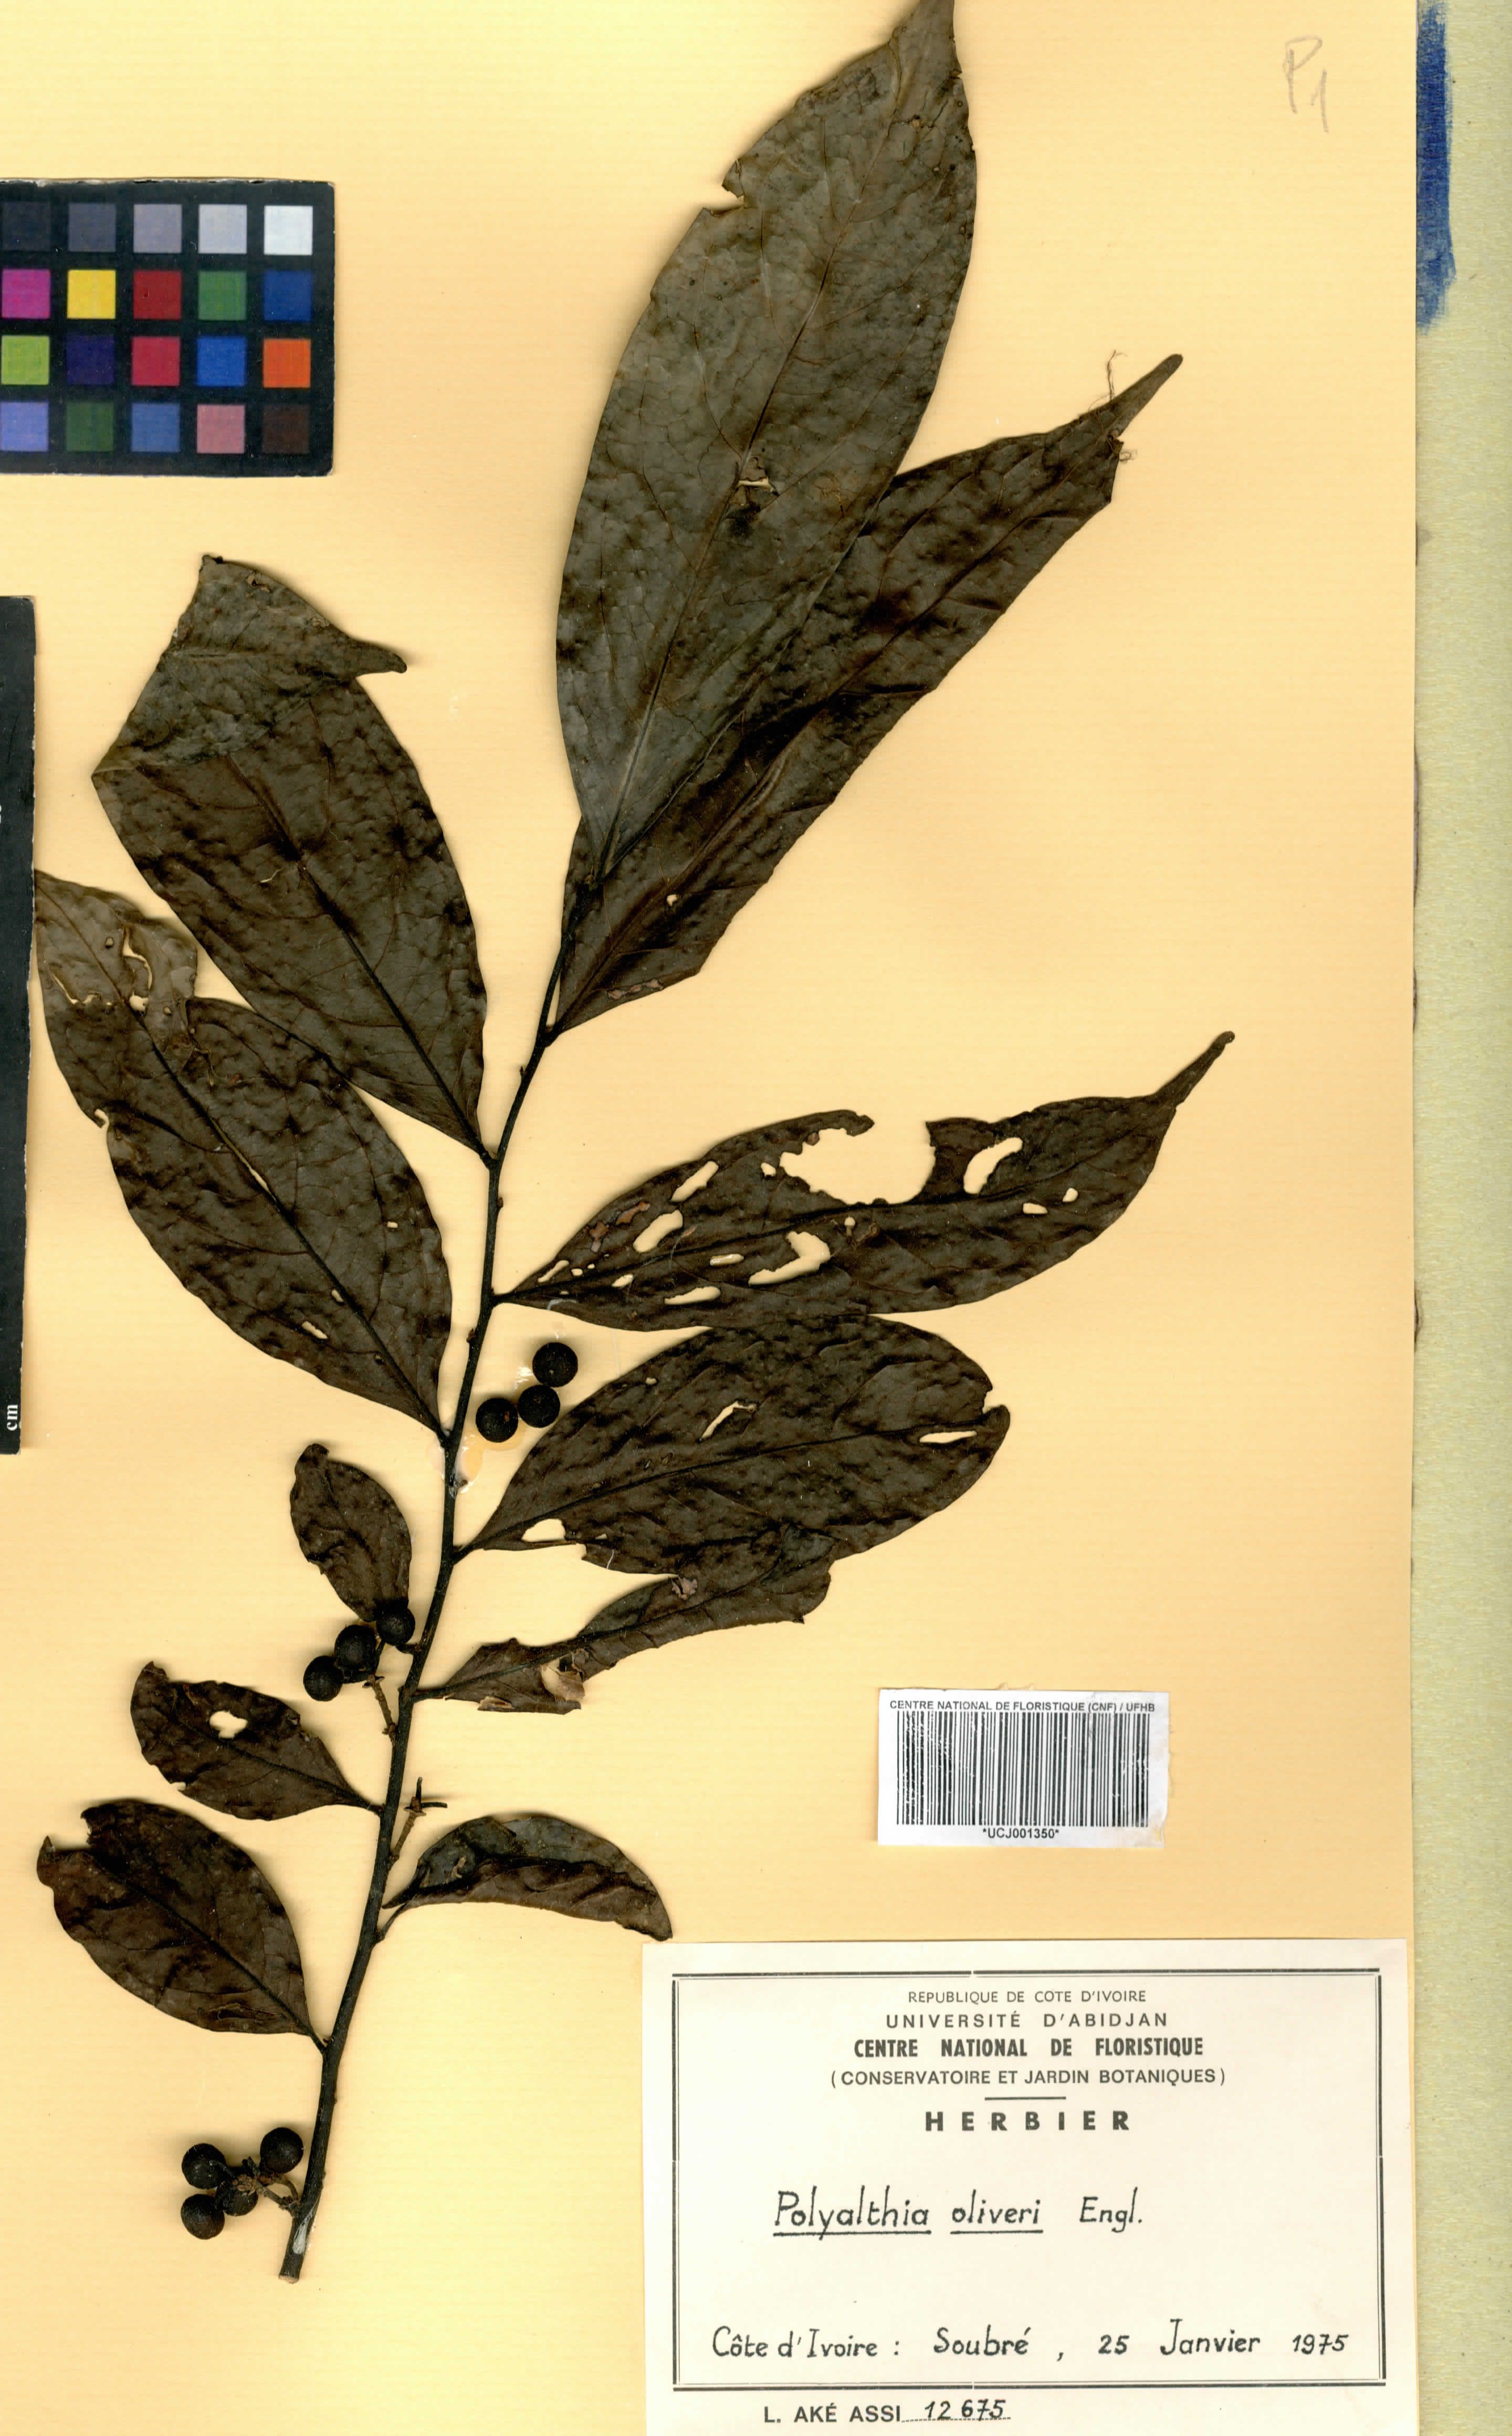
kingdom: Plantae
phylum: Tracheophyta
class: Magnoliopsida
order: Magnoliales
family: Annonaceae
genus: Greenwayodendron
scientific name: Greenwayodendron oliveri
